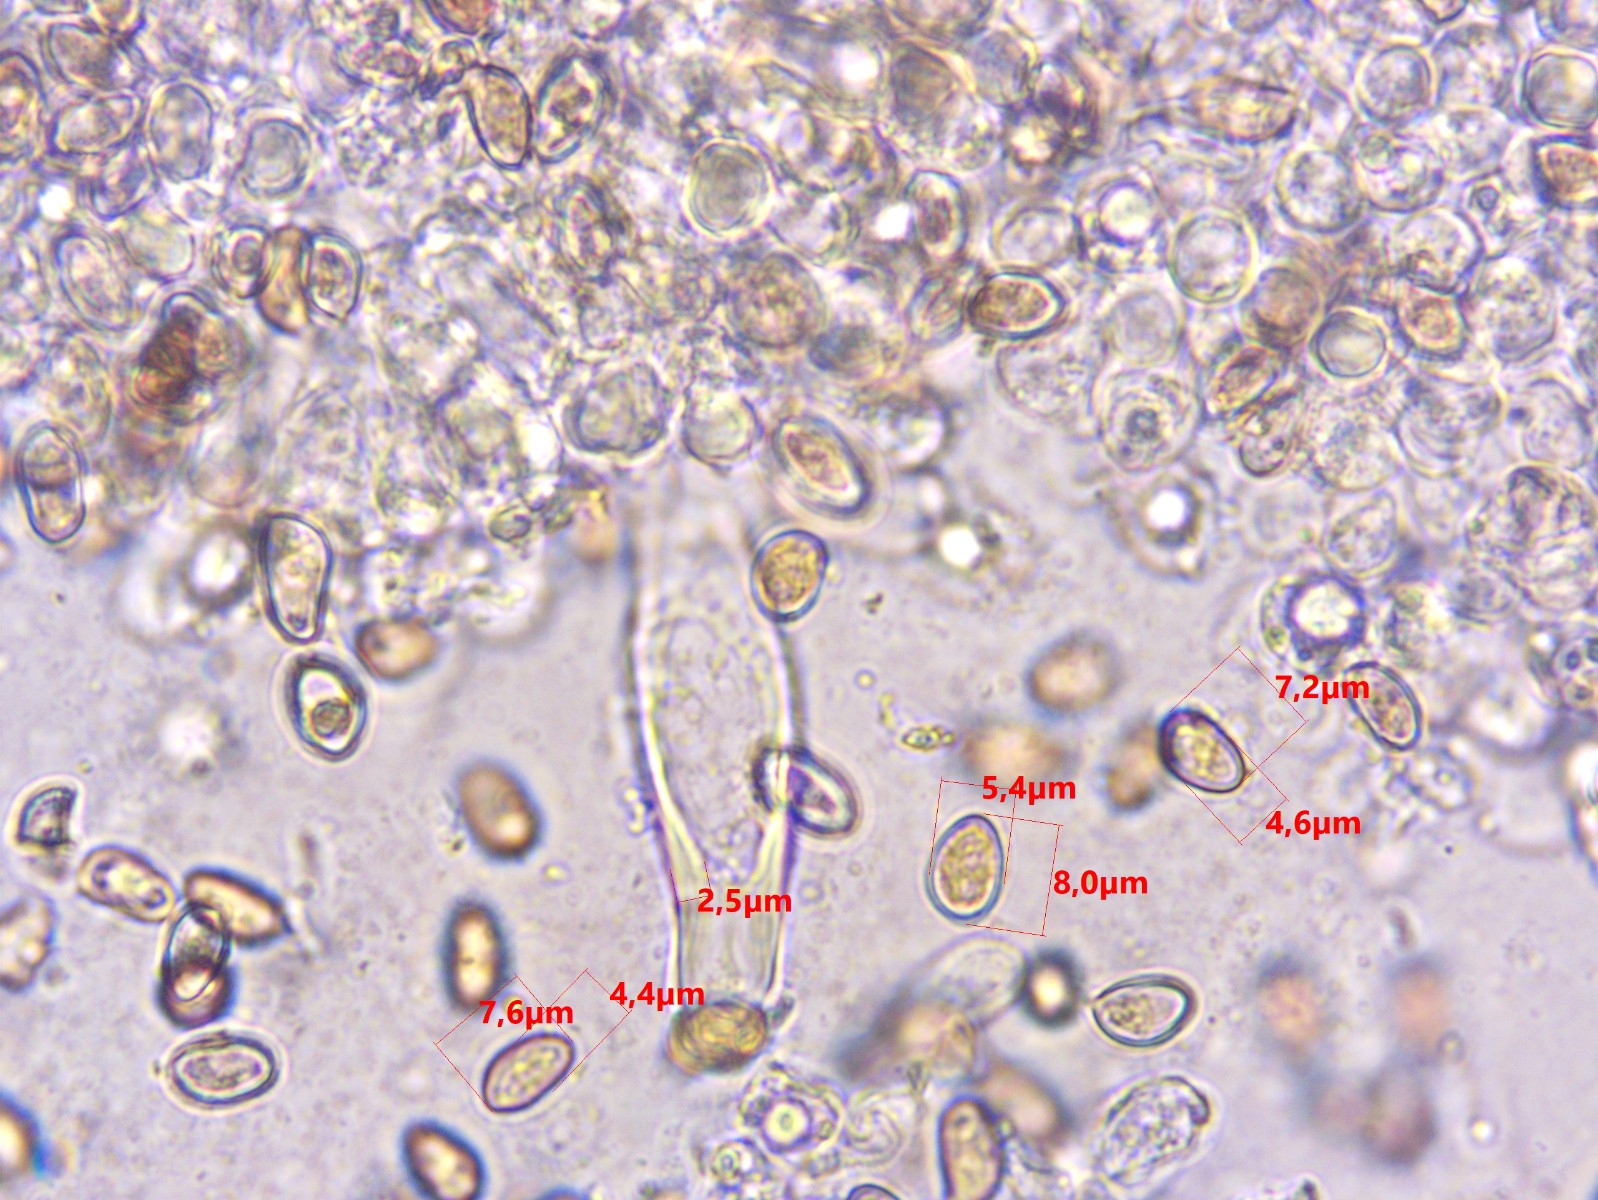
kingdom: Fungi
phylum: Basidiomycota
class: Agaricomycetes
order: Agaricales
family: Inocybaceae
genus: Inocybe
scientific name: Inocybe
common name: almindelig trævlhat
